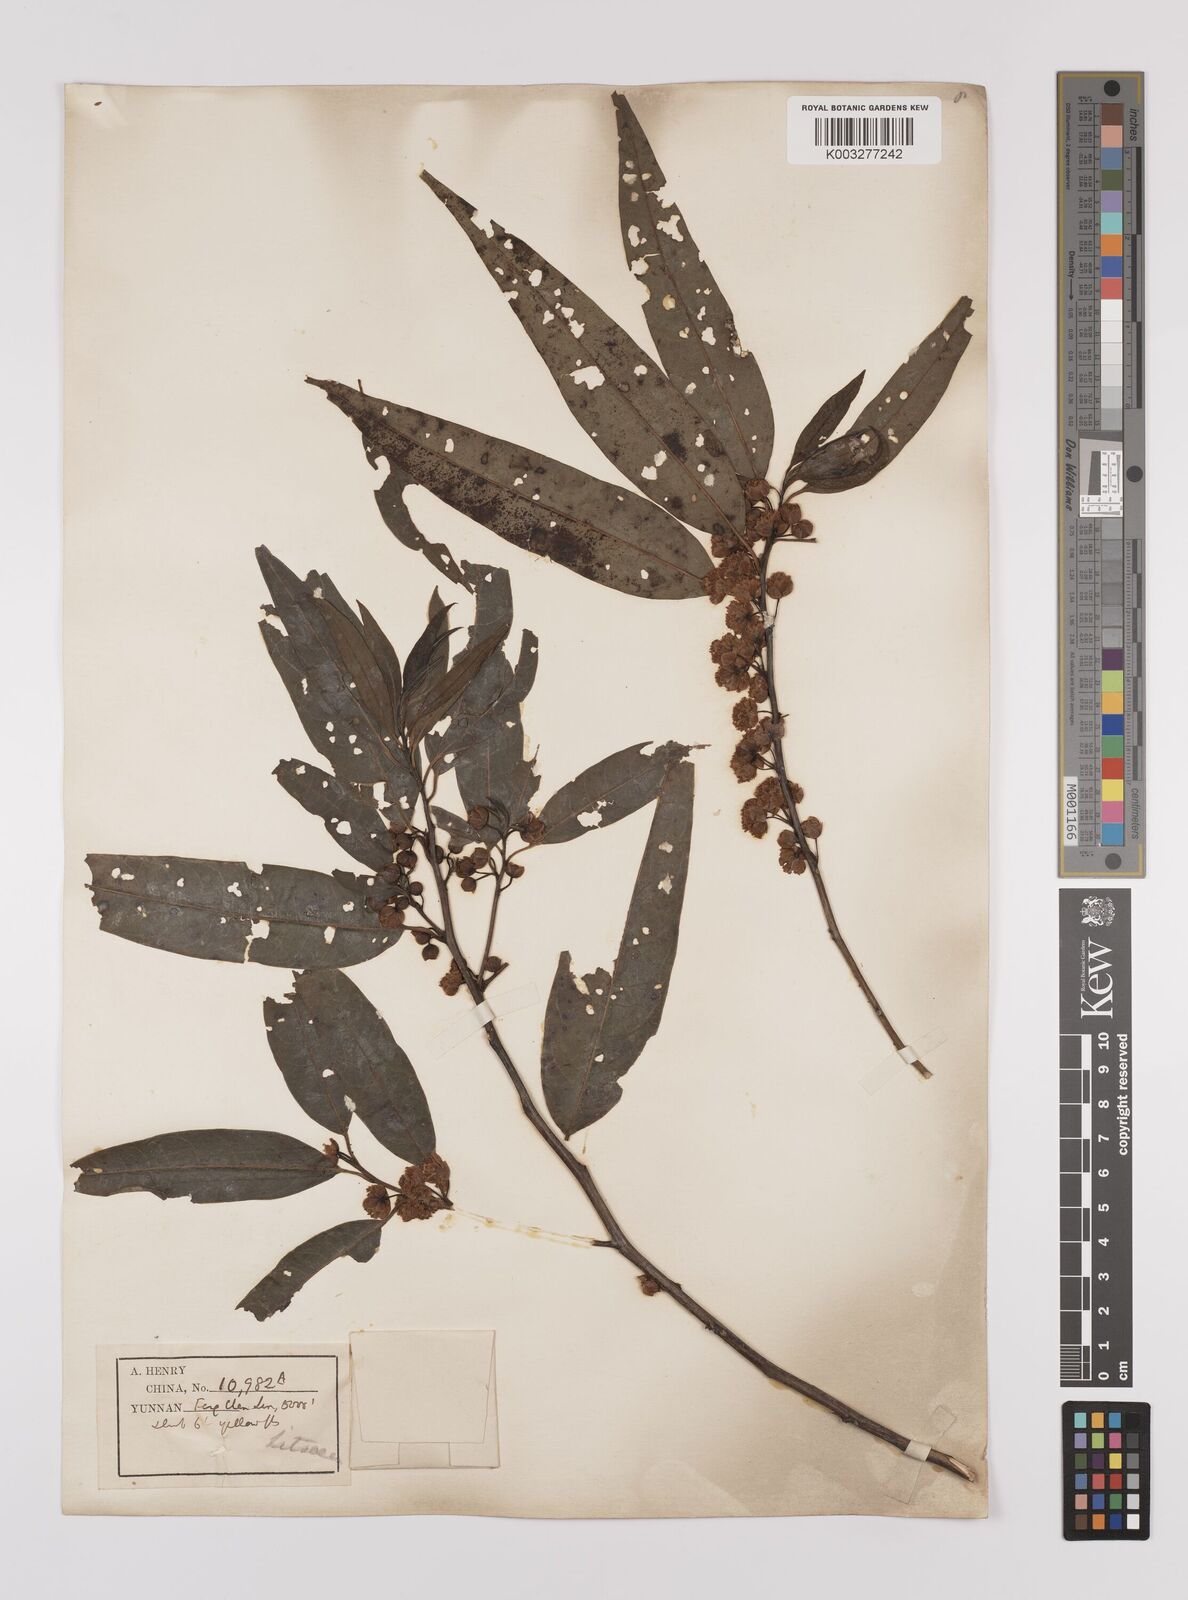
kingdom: Plantae
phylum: Tracheophyta
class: Magnoliopsida
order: Laurales
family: Lauraceae
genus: Lindera
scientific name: Lindera pipericarpa
